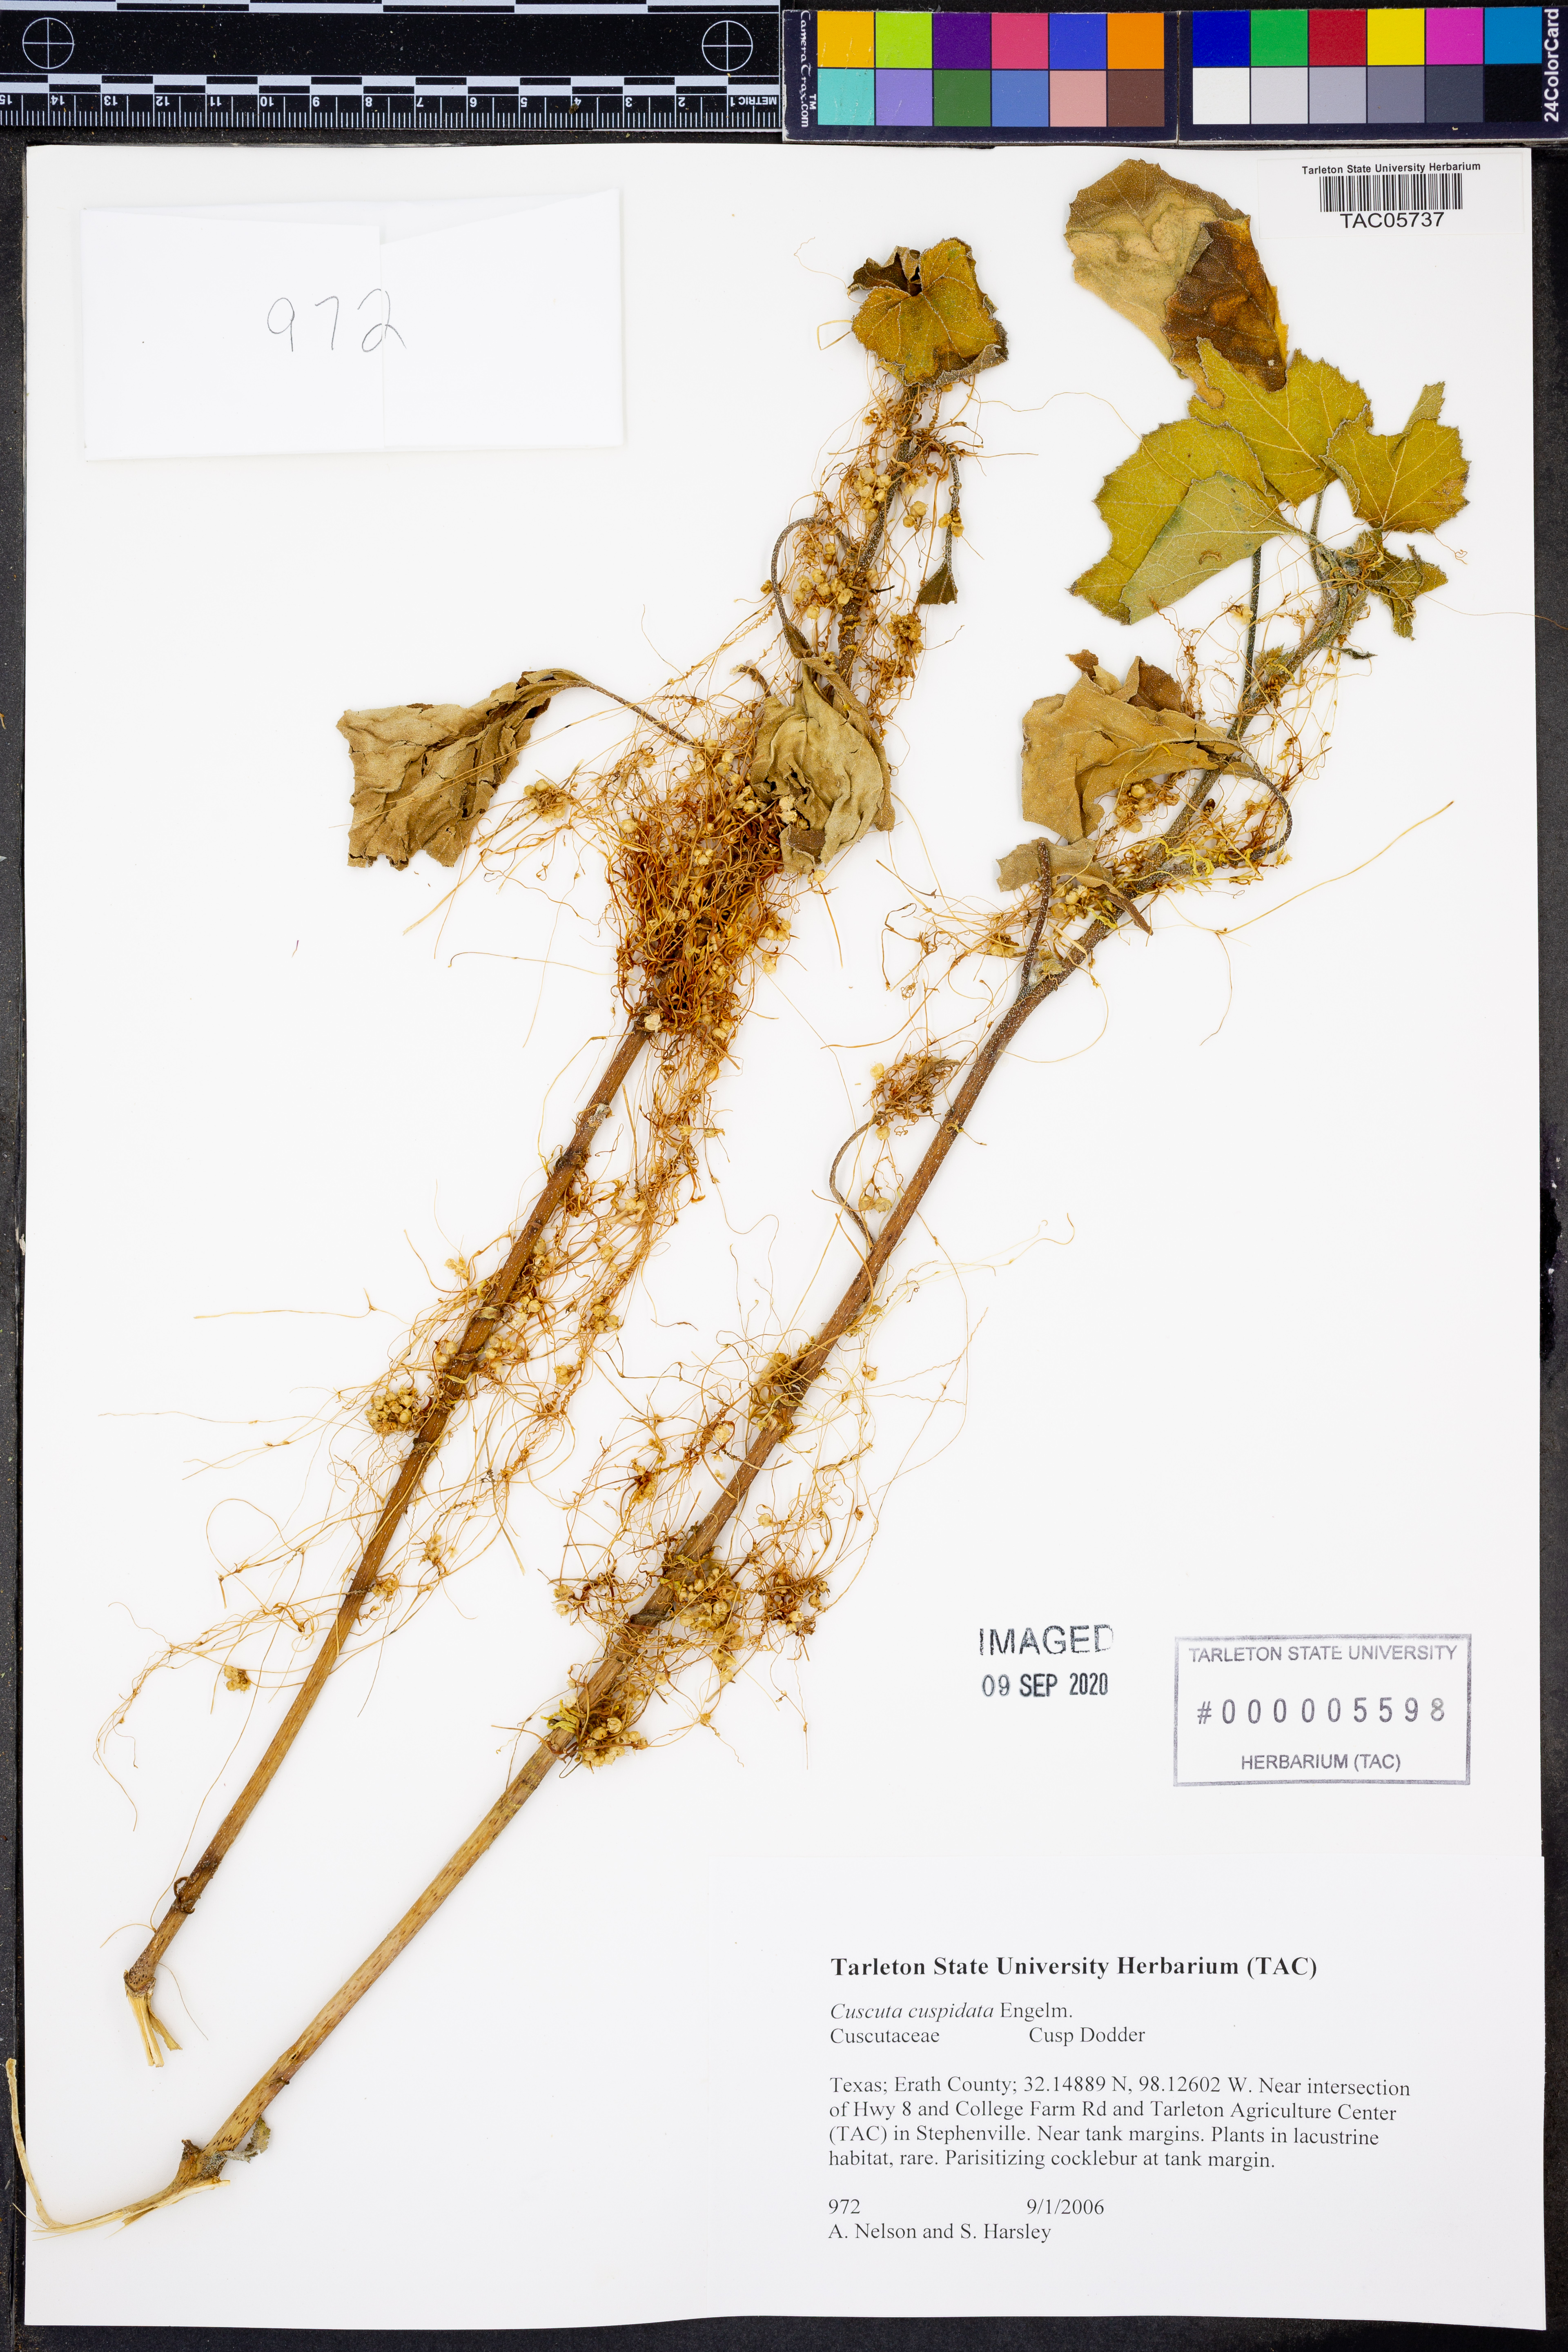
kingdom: Plantae
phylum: Tracheophyta
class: Magnoliopsida
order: Solanales
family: Convolvulaceae
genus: Cuscuta
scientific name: Cuscuta cuspidata
